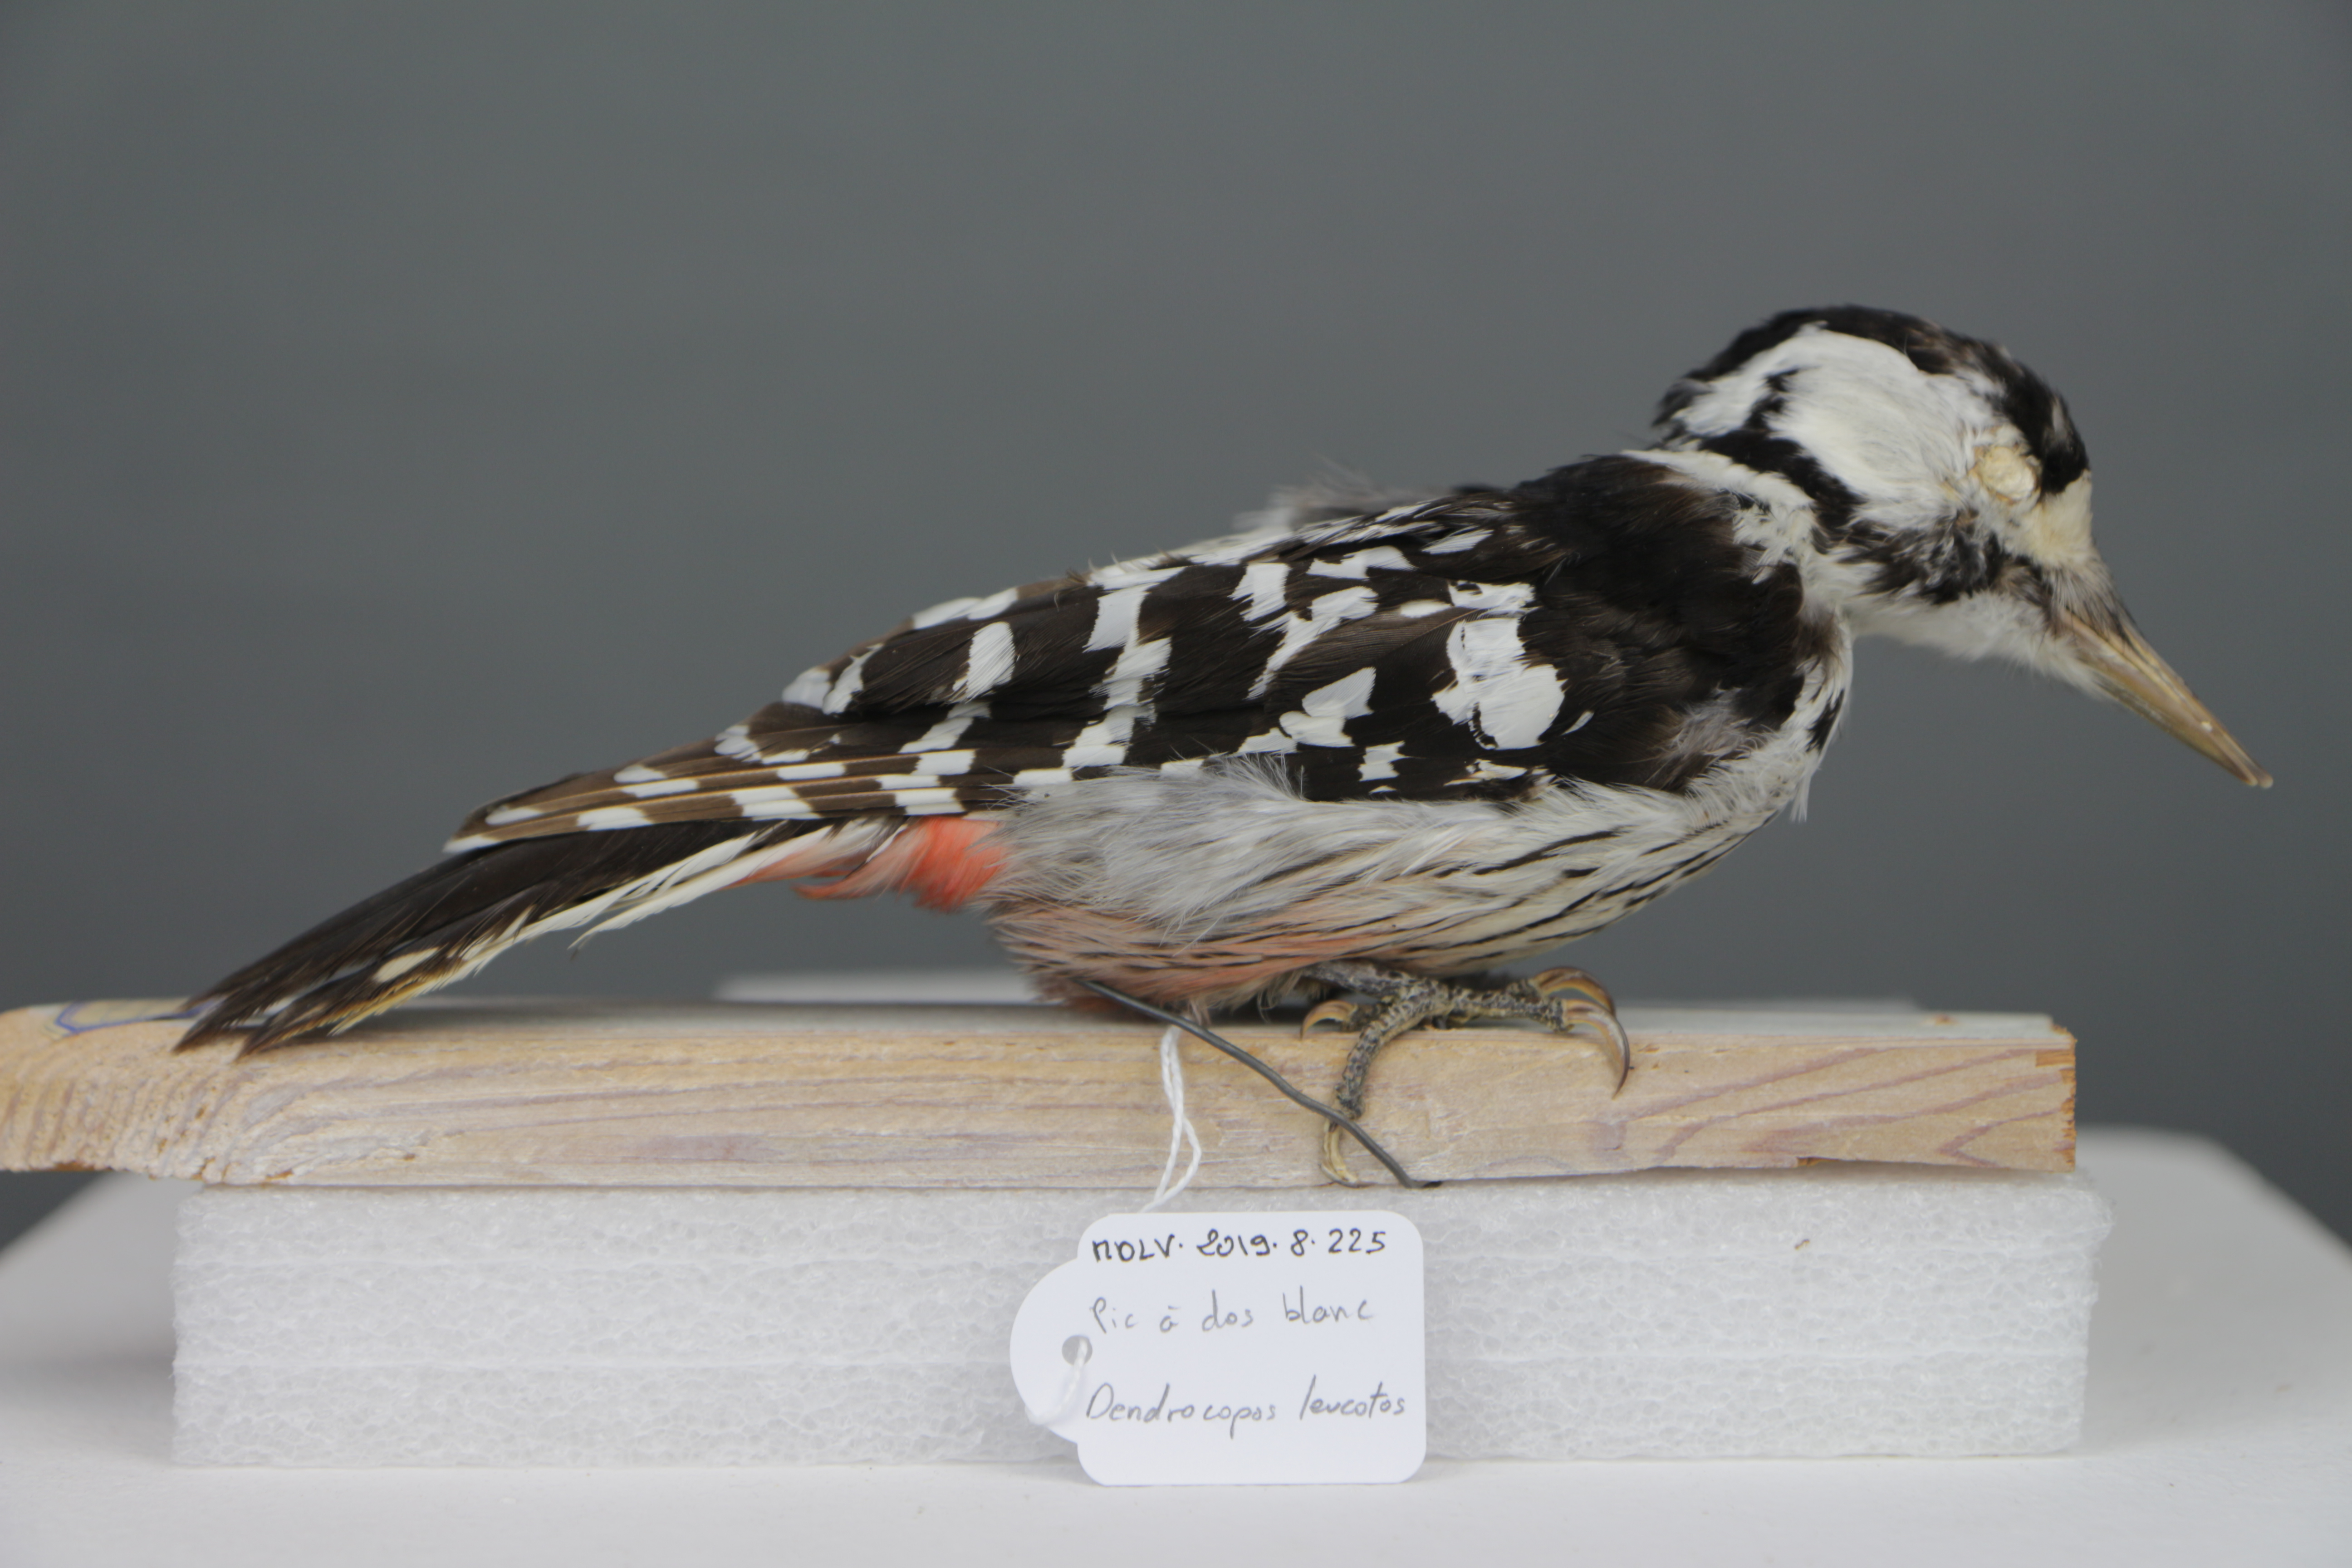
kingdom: Animalia
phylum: Chordata
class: Aves
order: Piciformes
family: Picidae
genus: Dendrocopos
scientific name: Dendrocopos leucotos
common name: White-backed woodpecker
